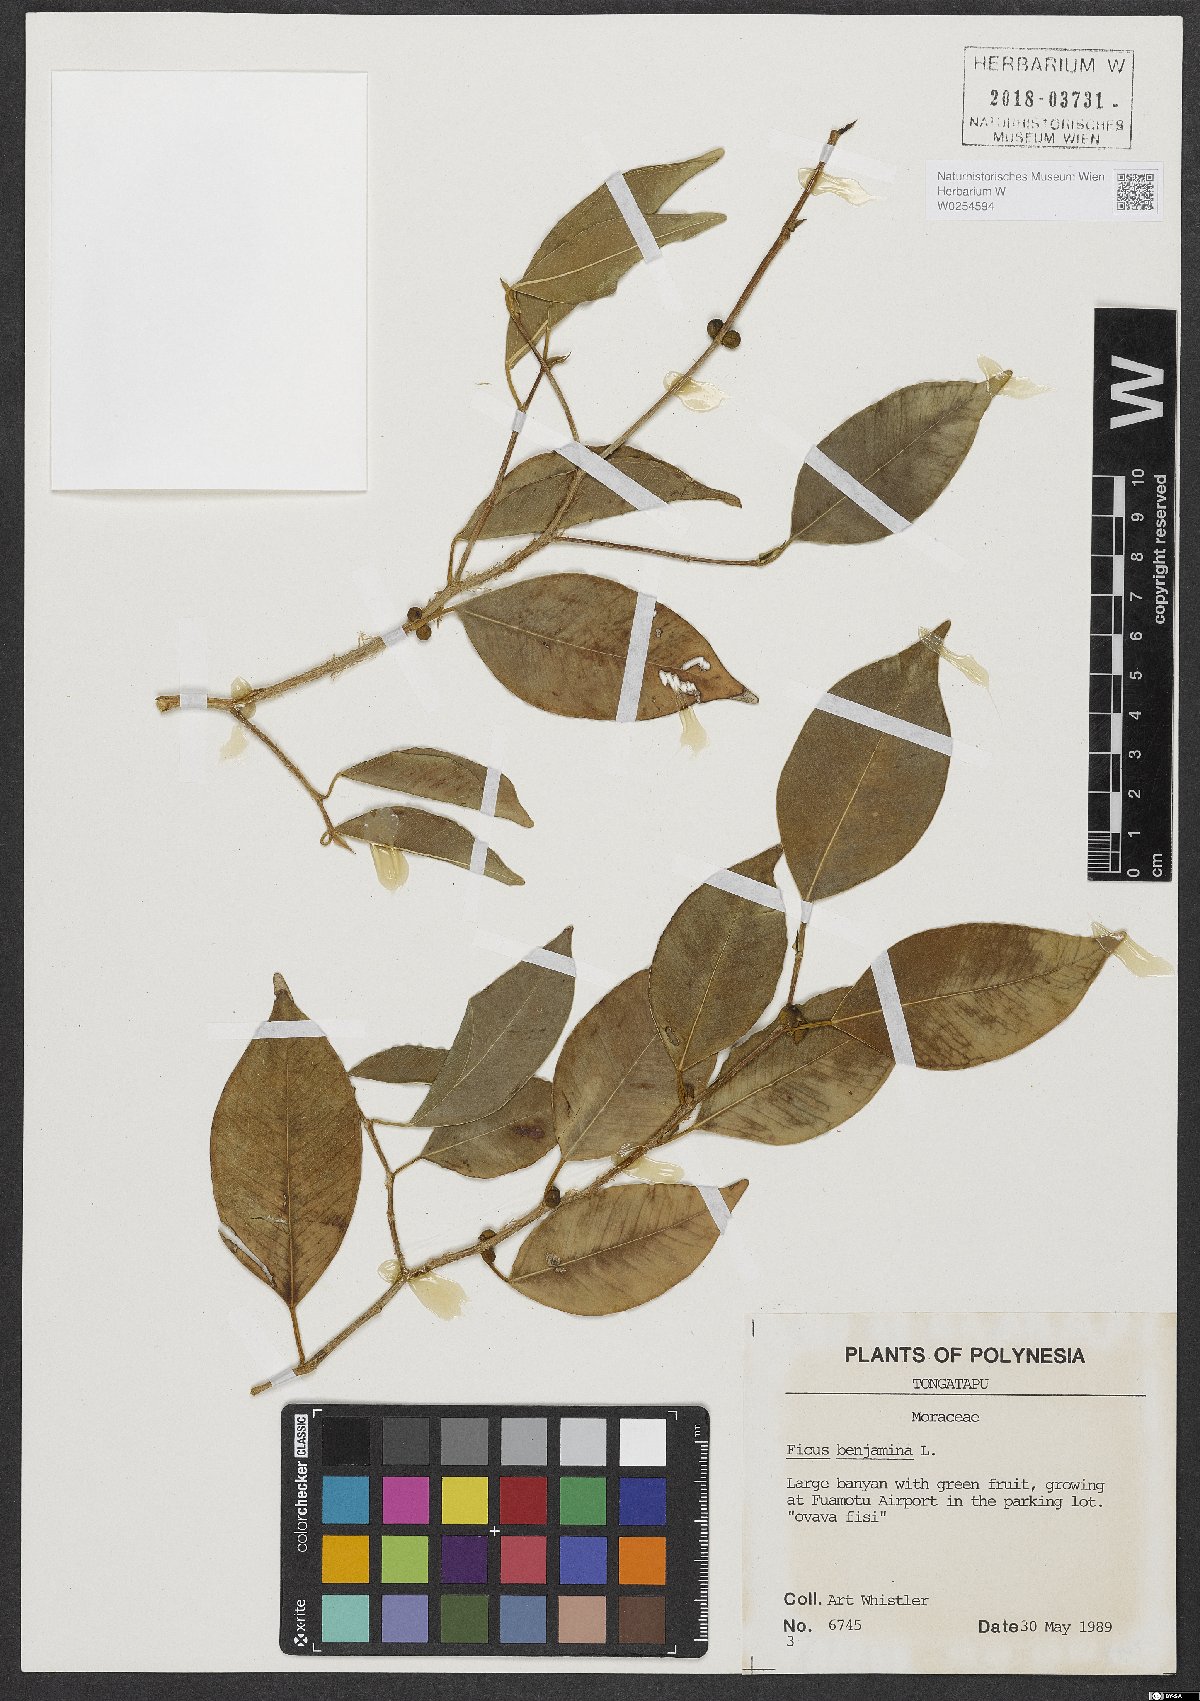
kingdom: Plantae
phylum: Tracheophyta
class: Magnoliopsida
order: Rosales
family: Moraceae
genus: Ficus
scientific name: Ficus benjamina
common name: Weeping fig
